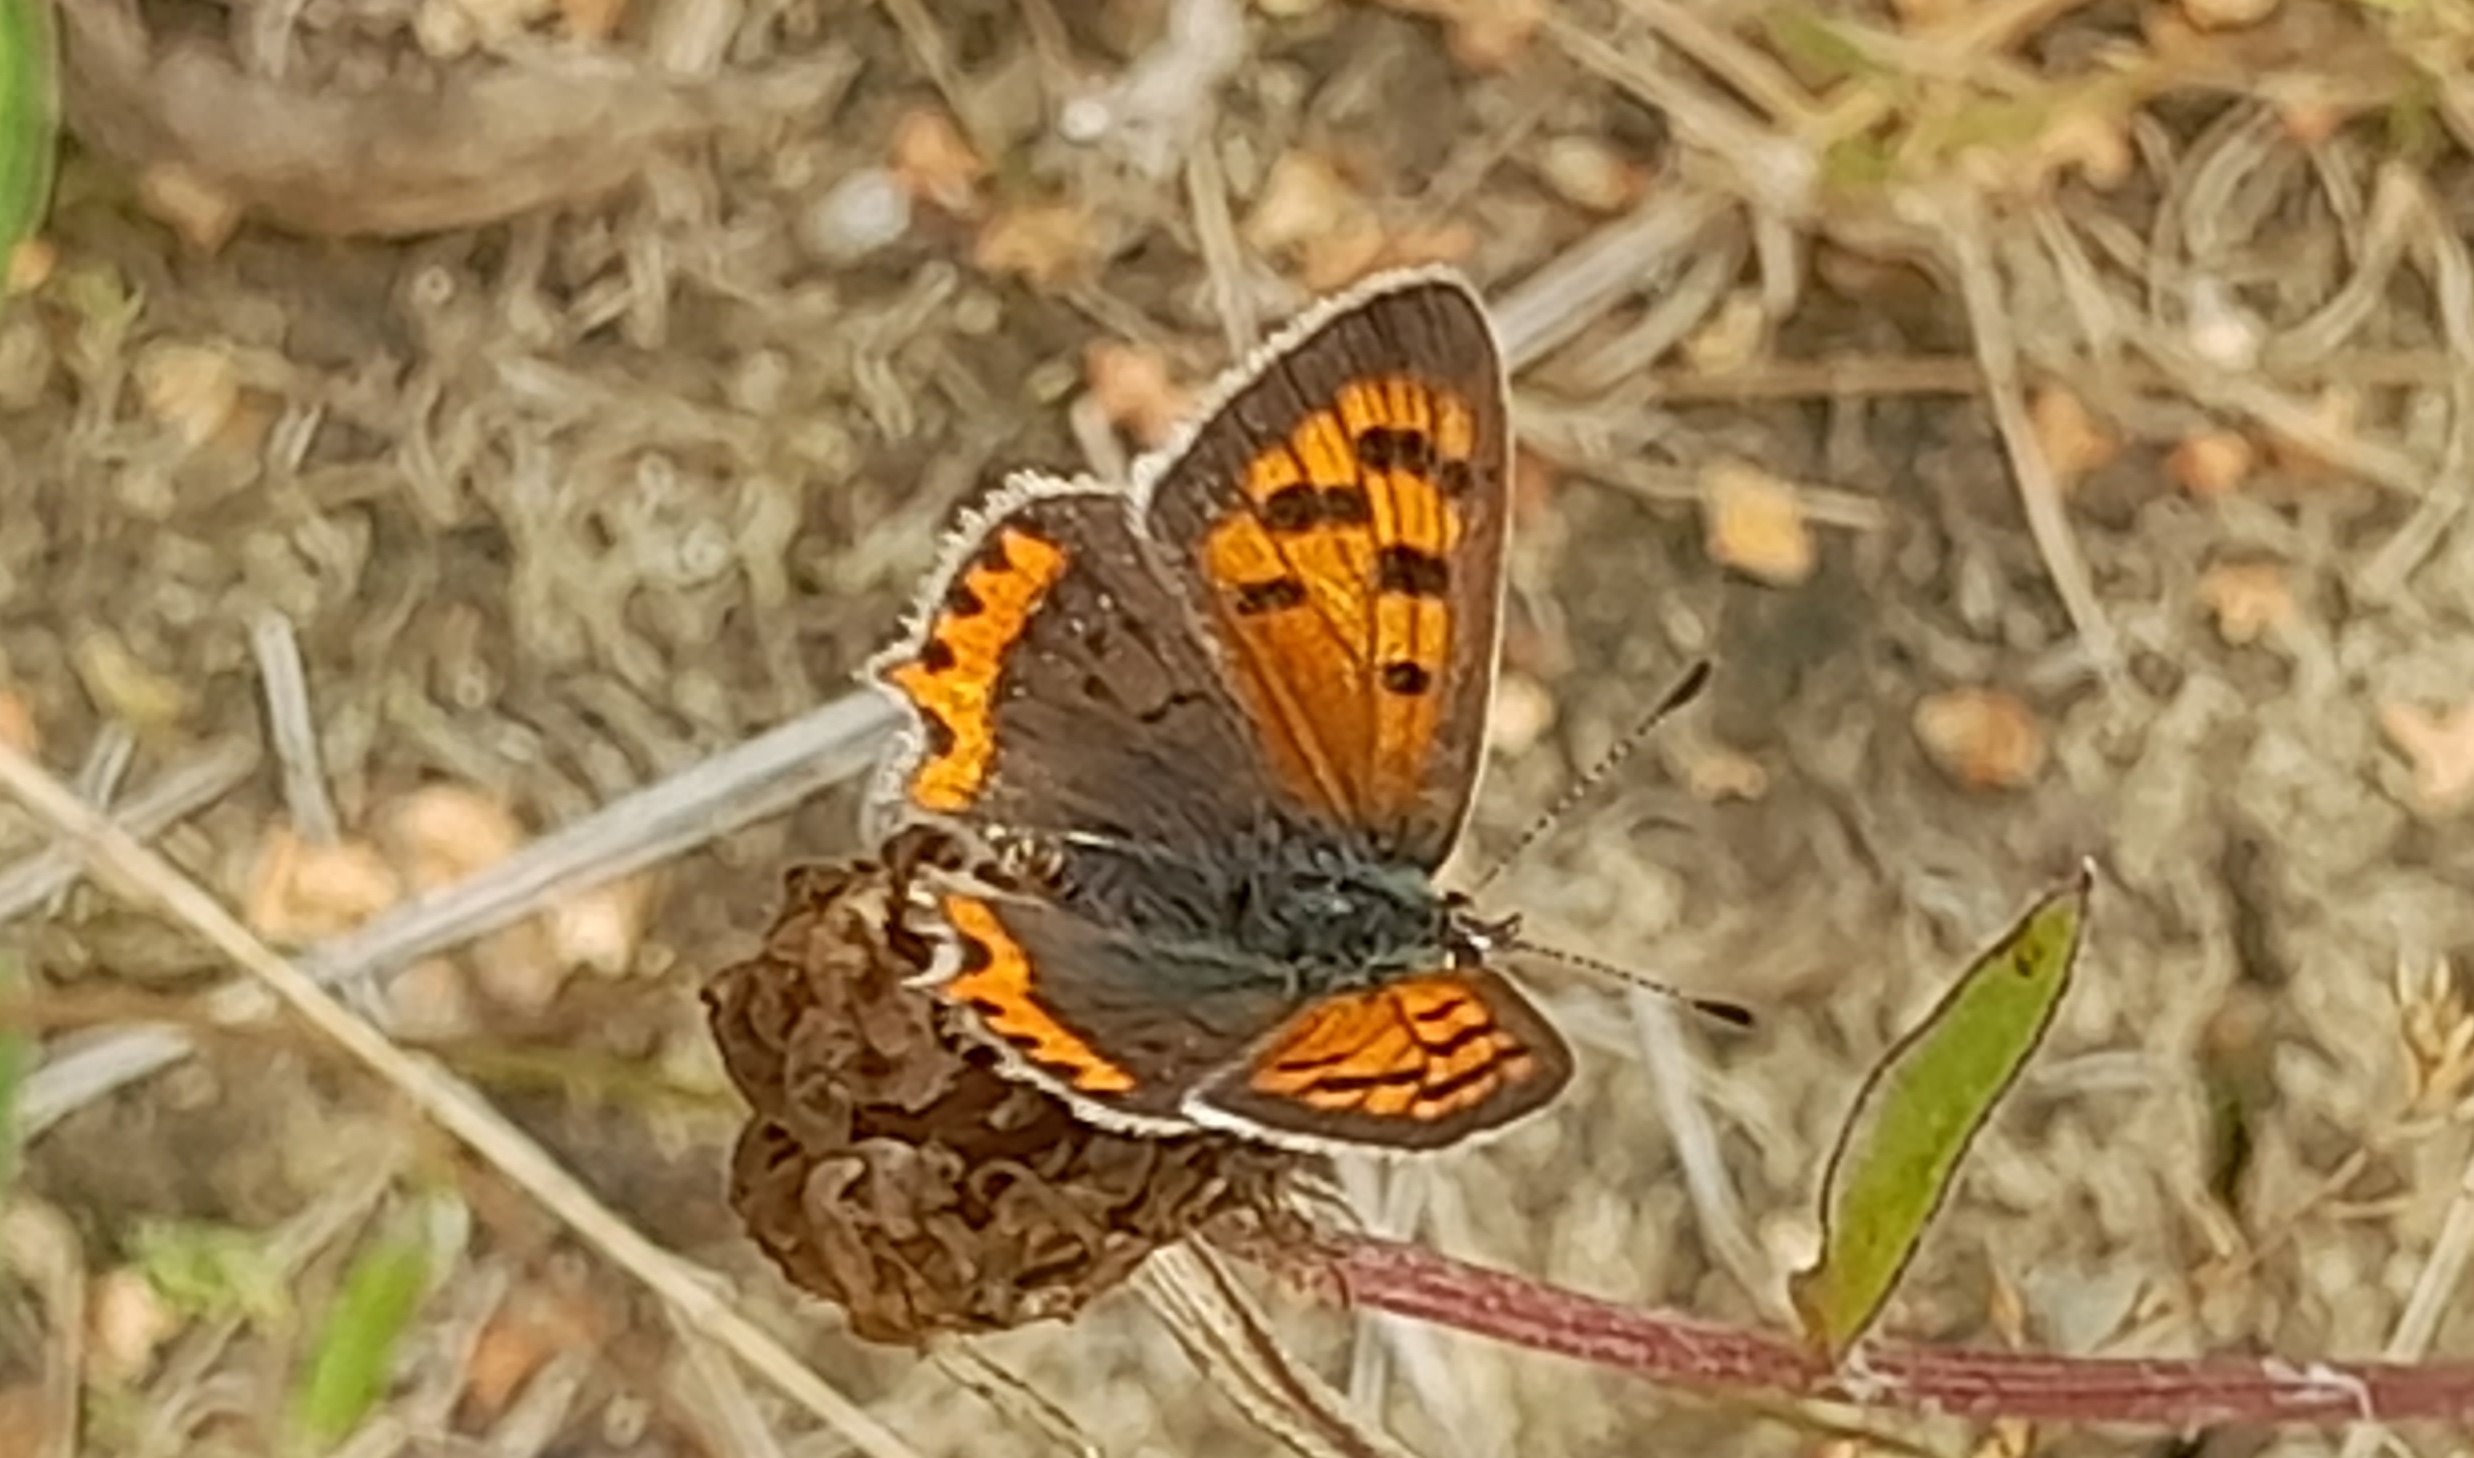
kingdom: Animalia
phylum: Arthropoda
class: Insecta
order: Lepidoptera
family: Lycaenidae
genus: Lycaena
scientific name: Lycaena phlaeas
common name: Lille ildfugl
